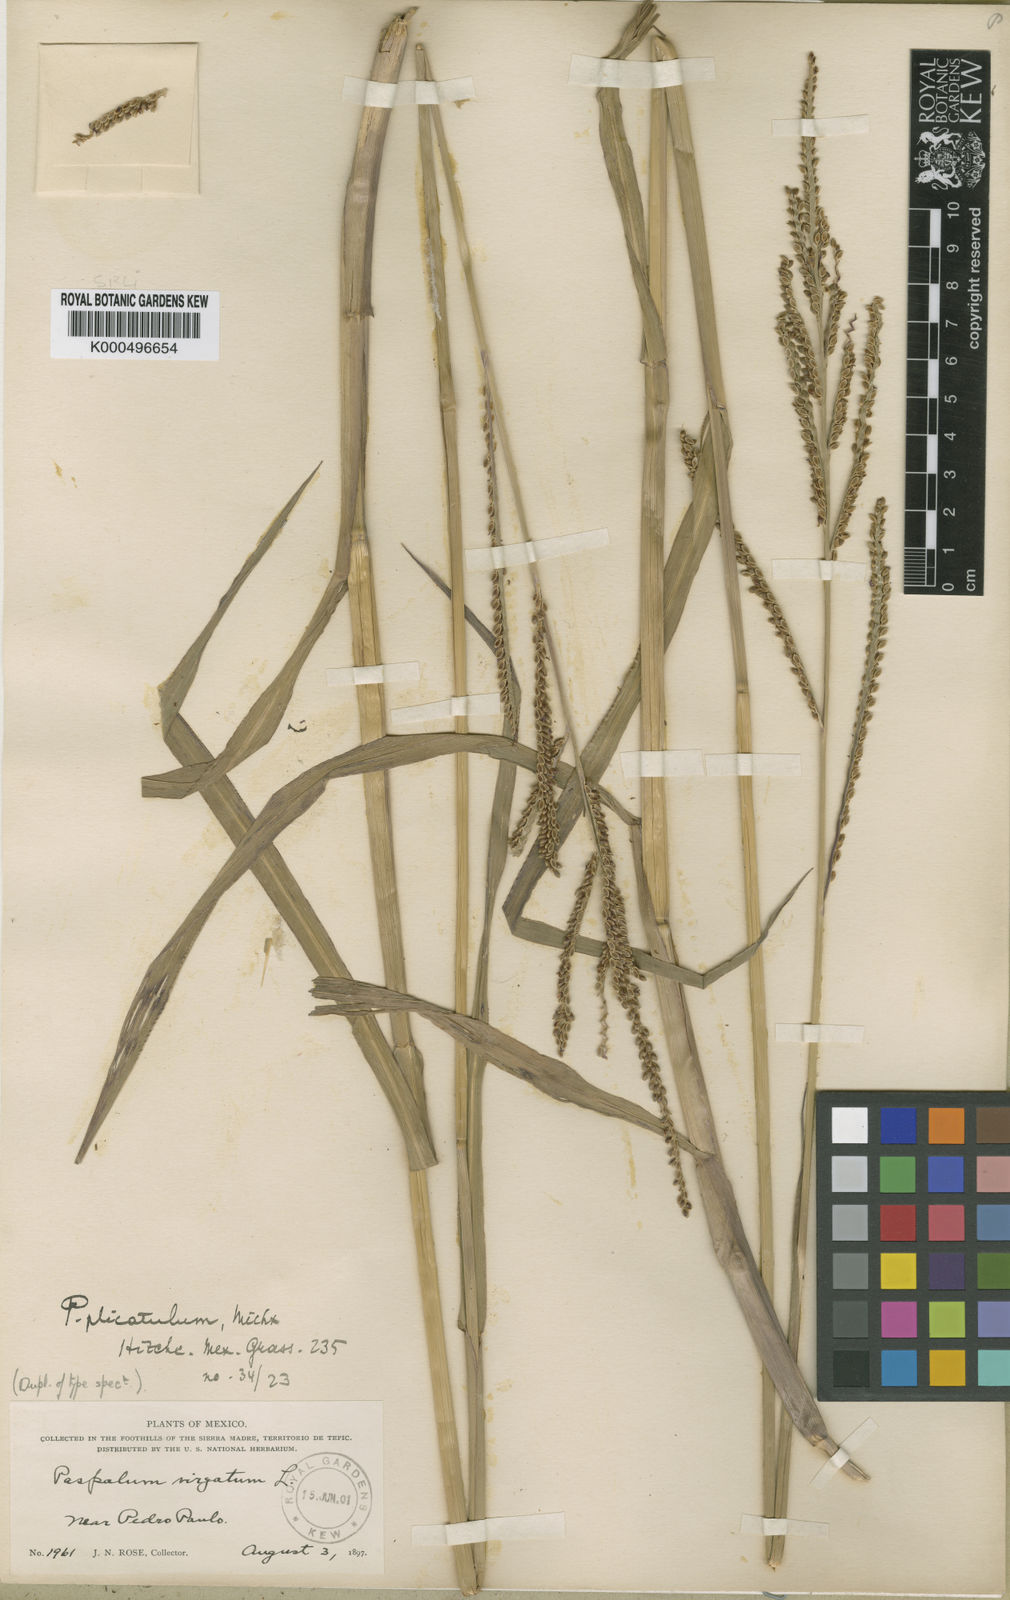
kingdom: Plantae
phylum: Tracheophyta
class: Liliopsida
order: Poales
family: Poaceae
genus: Paspalum
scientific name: Paspalum leptachne
